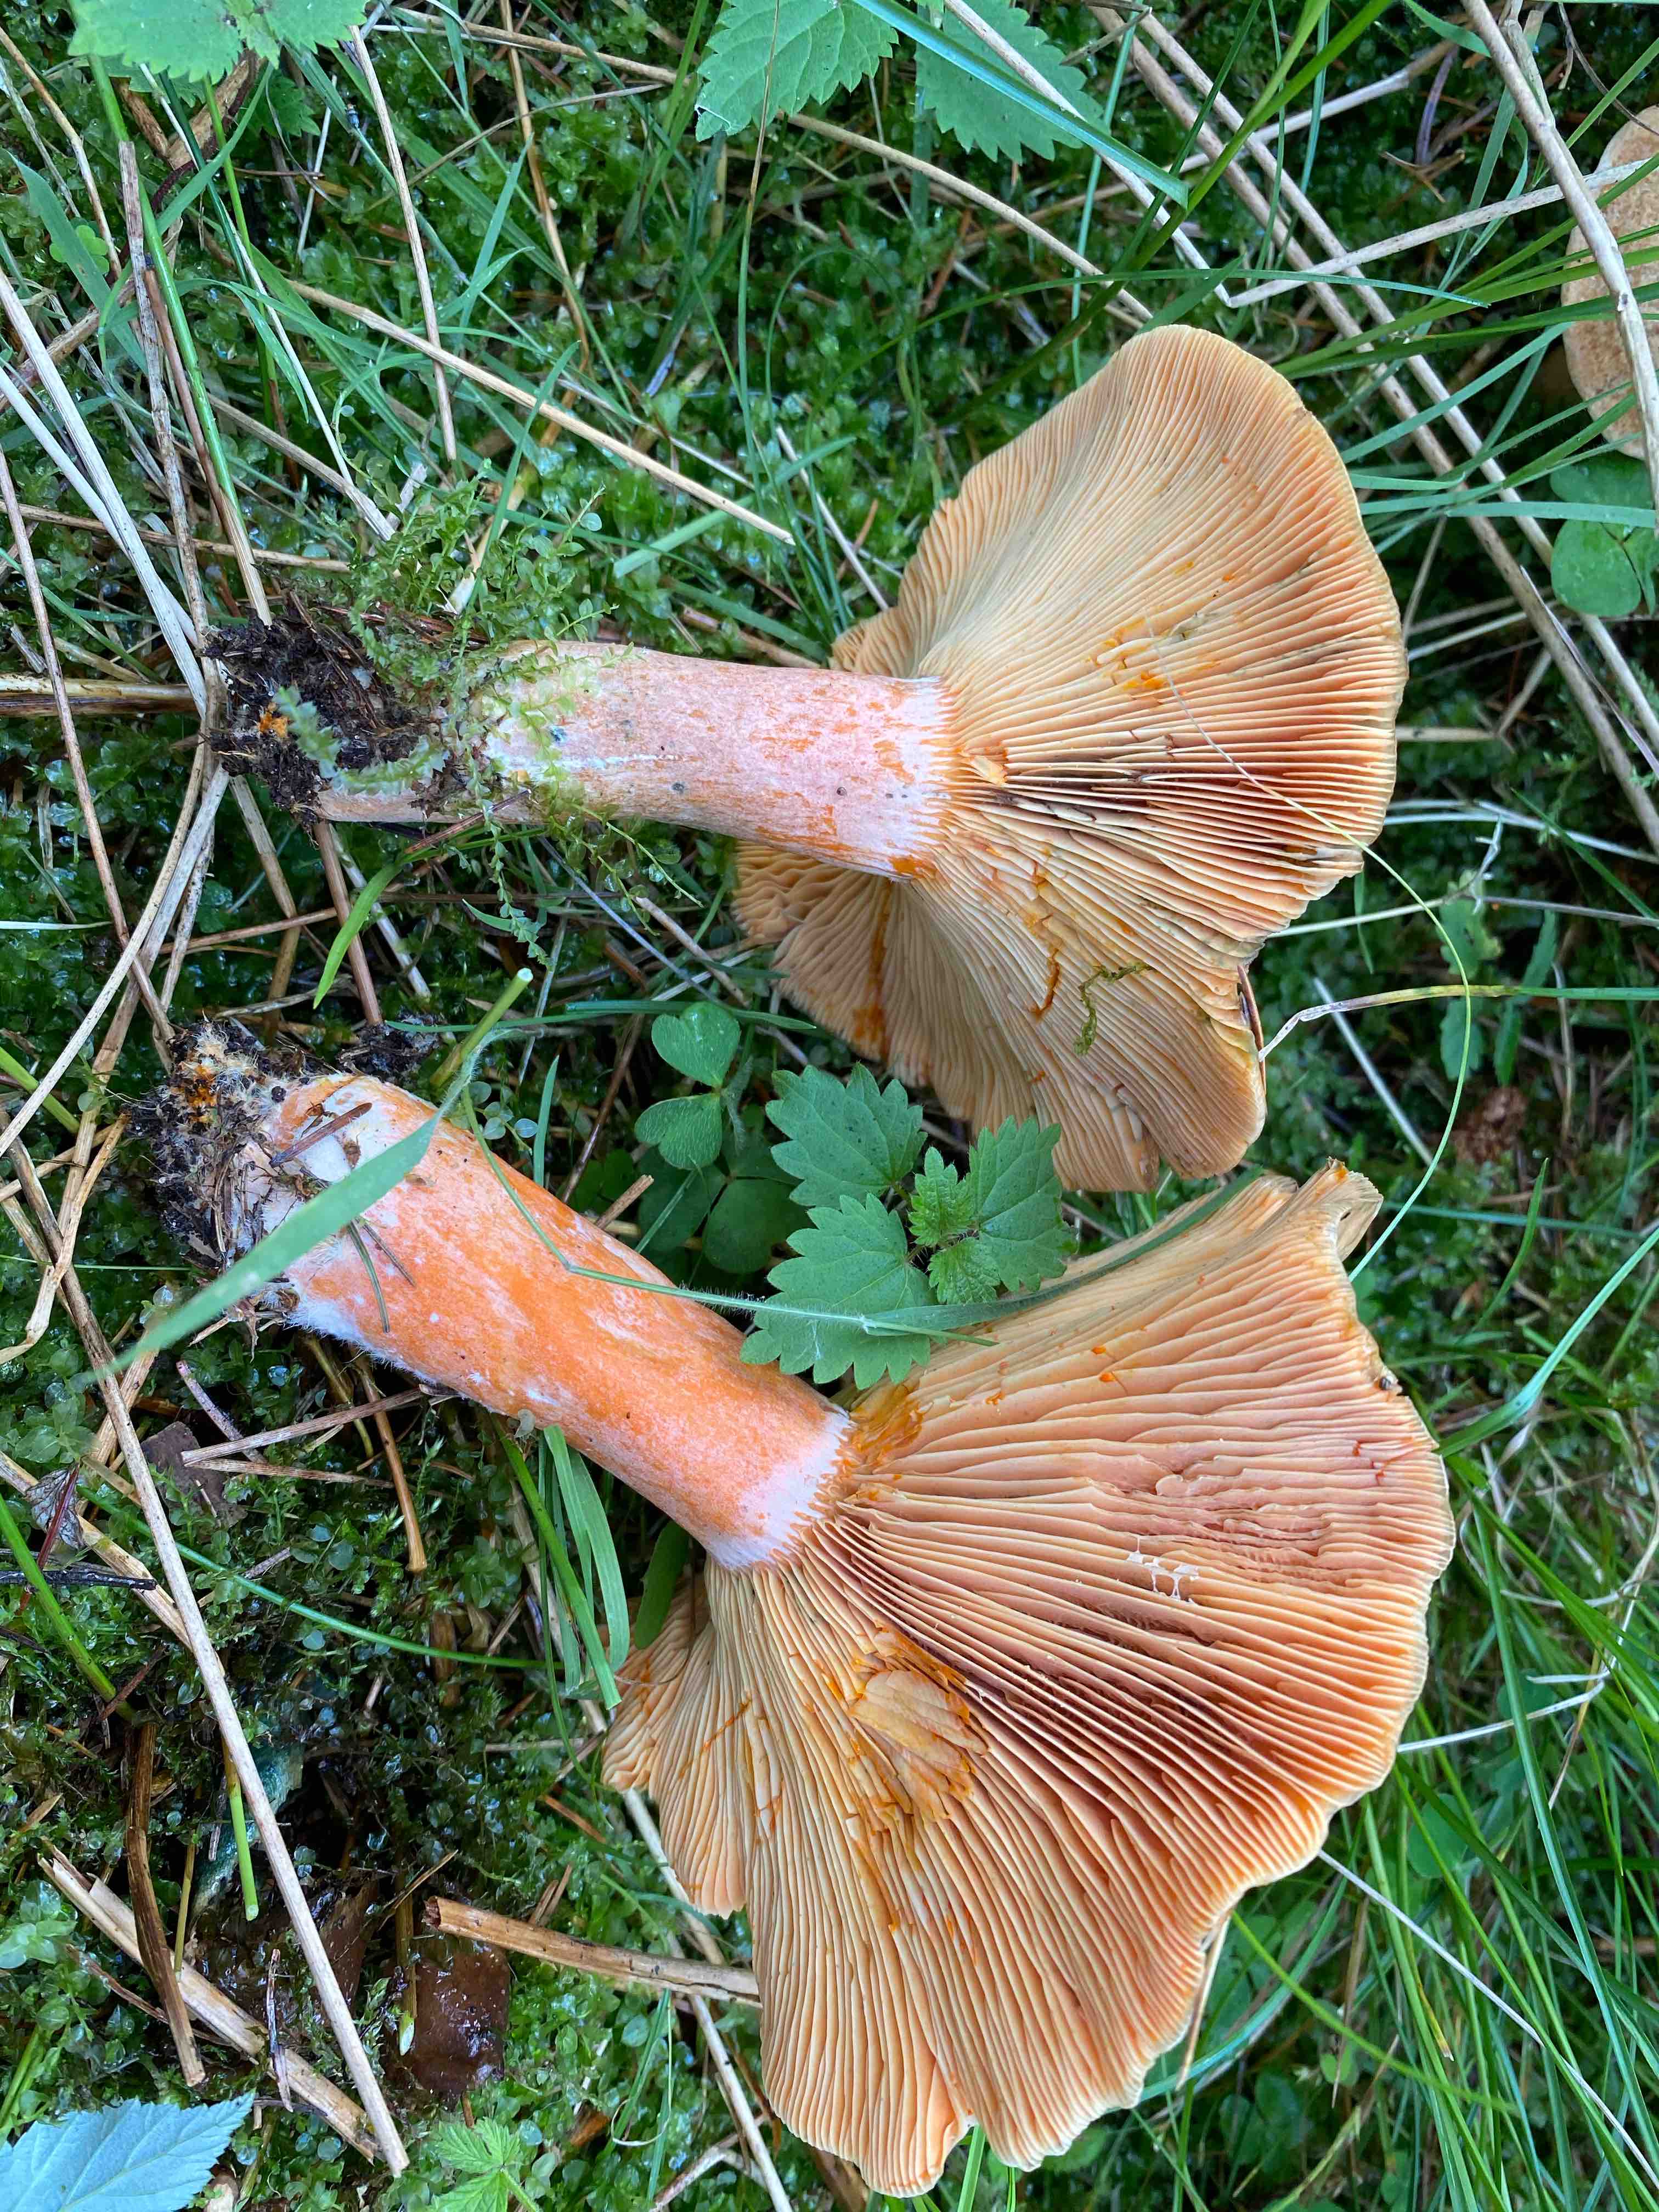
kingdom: Fungi
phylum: Basidiomycota
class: Agaricomycetes
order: Russulales
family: Russulaceae
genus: Lactarius
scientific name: Lactarius deterrimus
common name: gran-mælkehat
